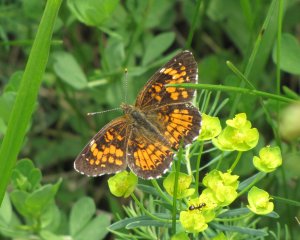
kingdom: Animalia
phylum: Arthropoda
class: Insecta
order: Lepidoptera
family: Nymphalidae
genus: Chlosyne
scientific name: Chlosyne harrisii
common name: Harris's Checkerspot
